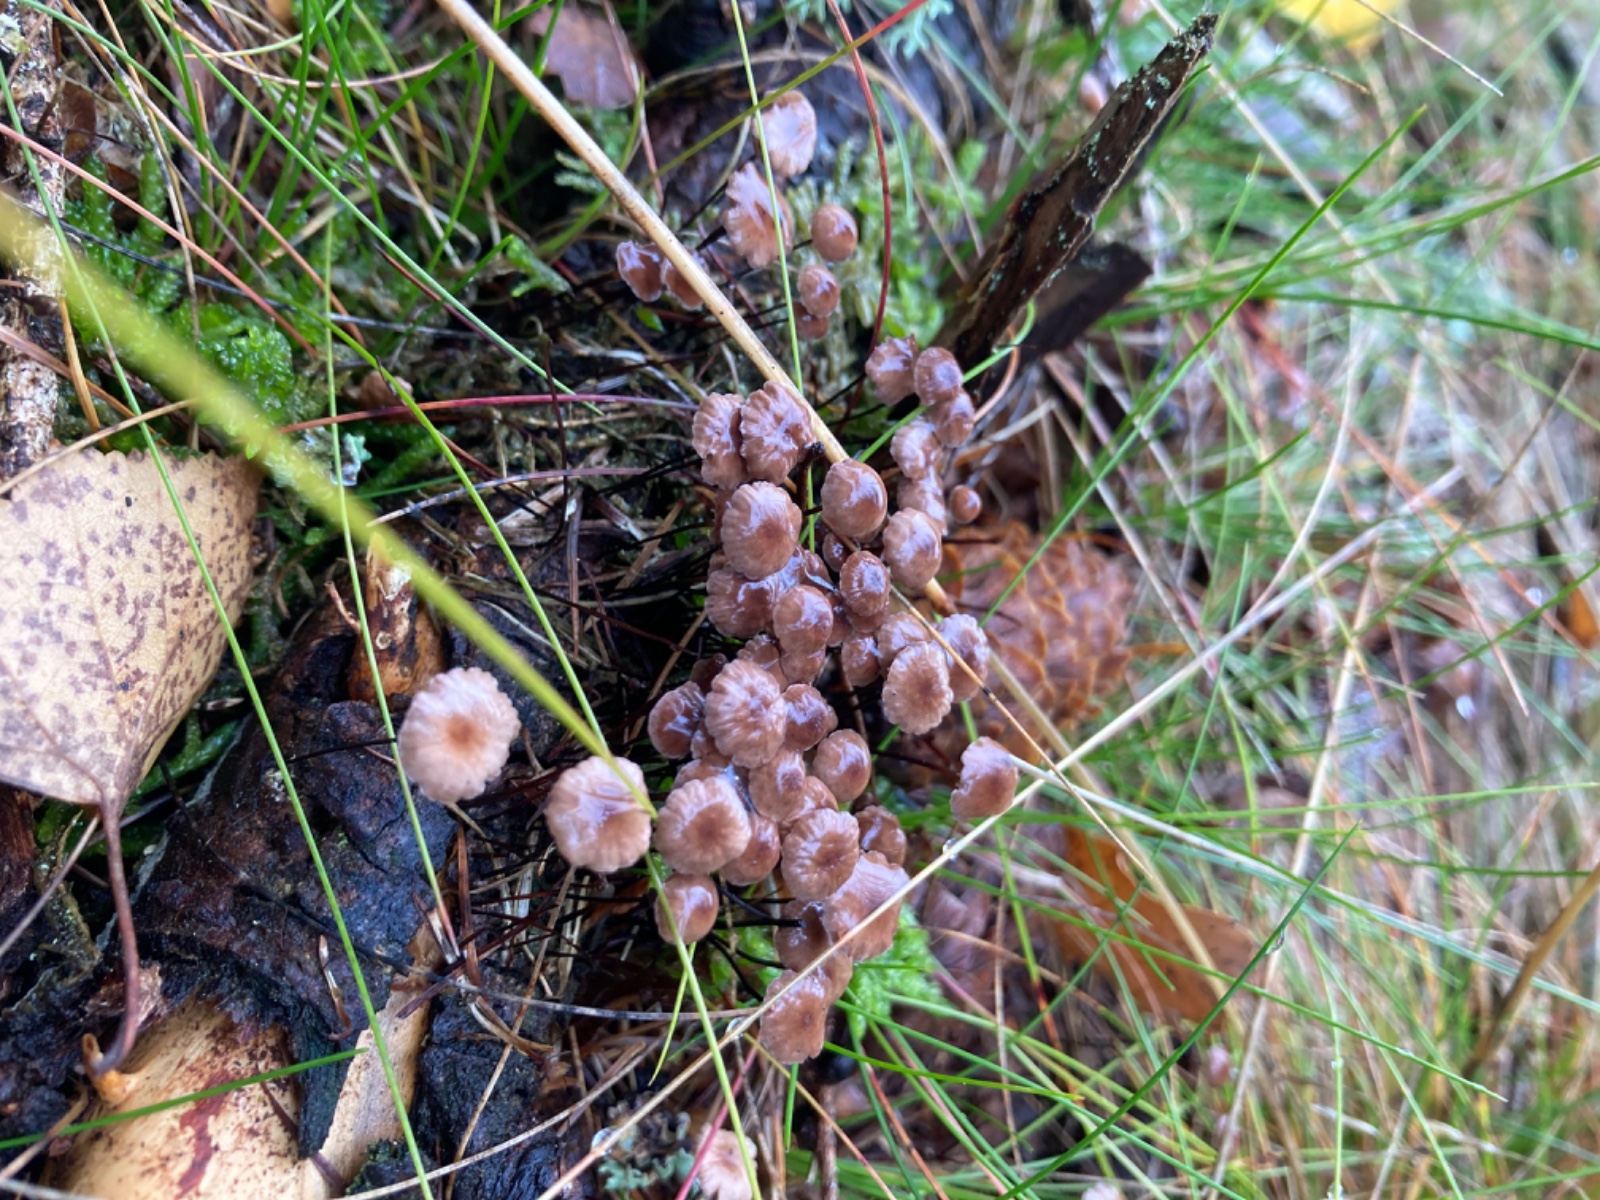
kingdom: Fungi
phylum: Basidiomycota
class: Agaricomycetes
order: Agaricales
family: Omphalotaceae
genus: Gymnopus
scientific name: Gymnopus androsaceus
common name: trådstokket fladhat
